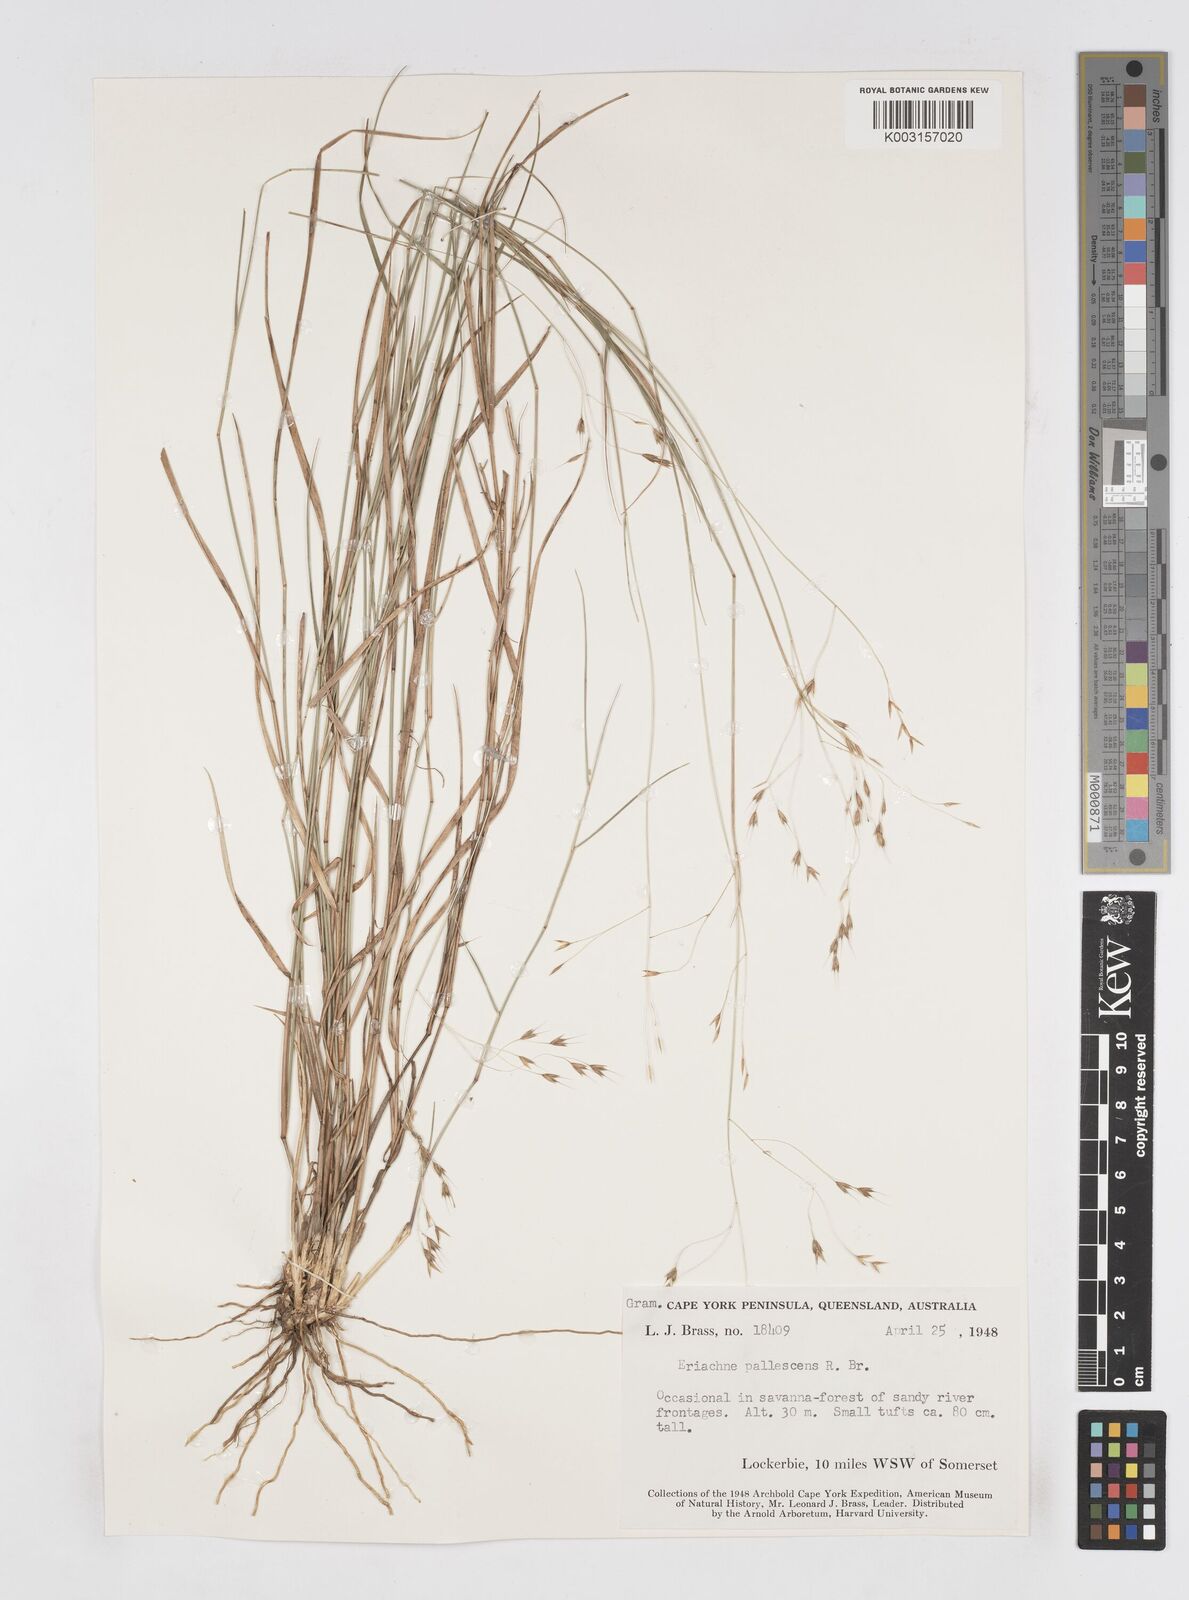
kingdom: Plantae
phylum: Tracheophyta
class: Liliopsida
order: Poales
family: Poaceae
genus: Eriachne
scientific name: Eriachne pallescens
